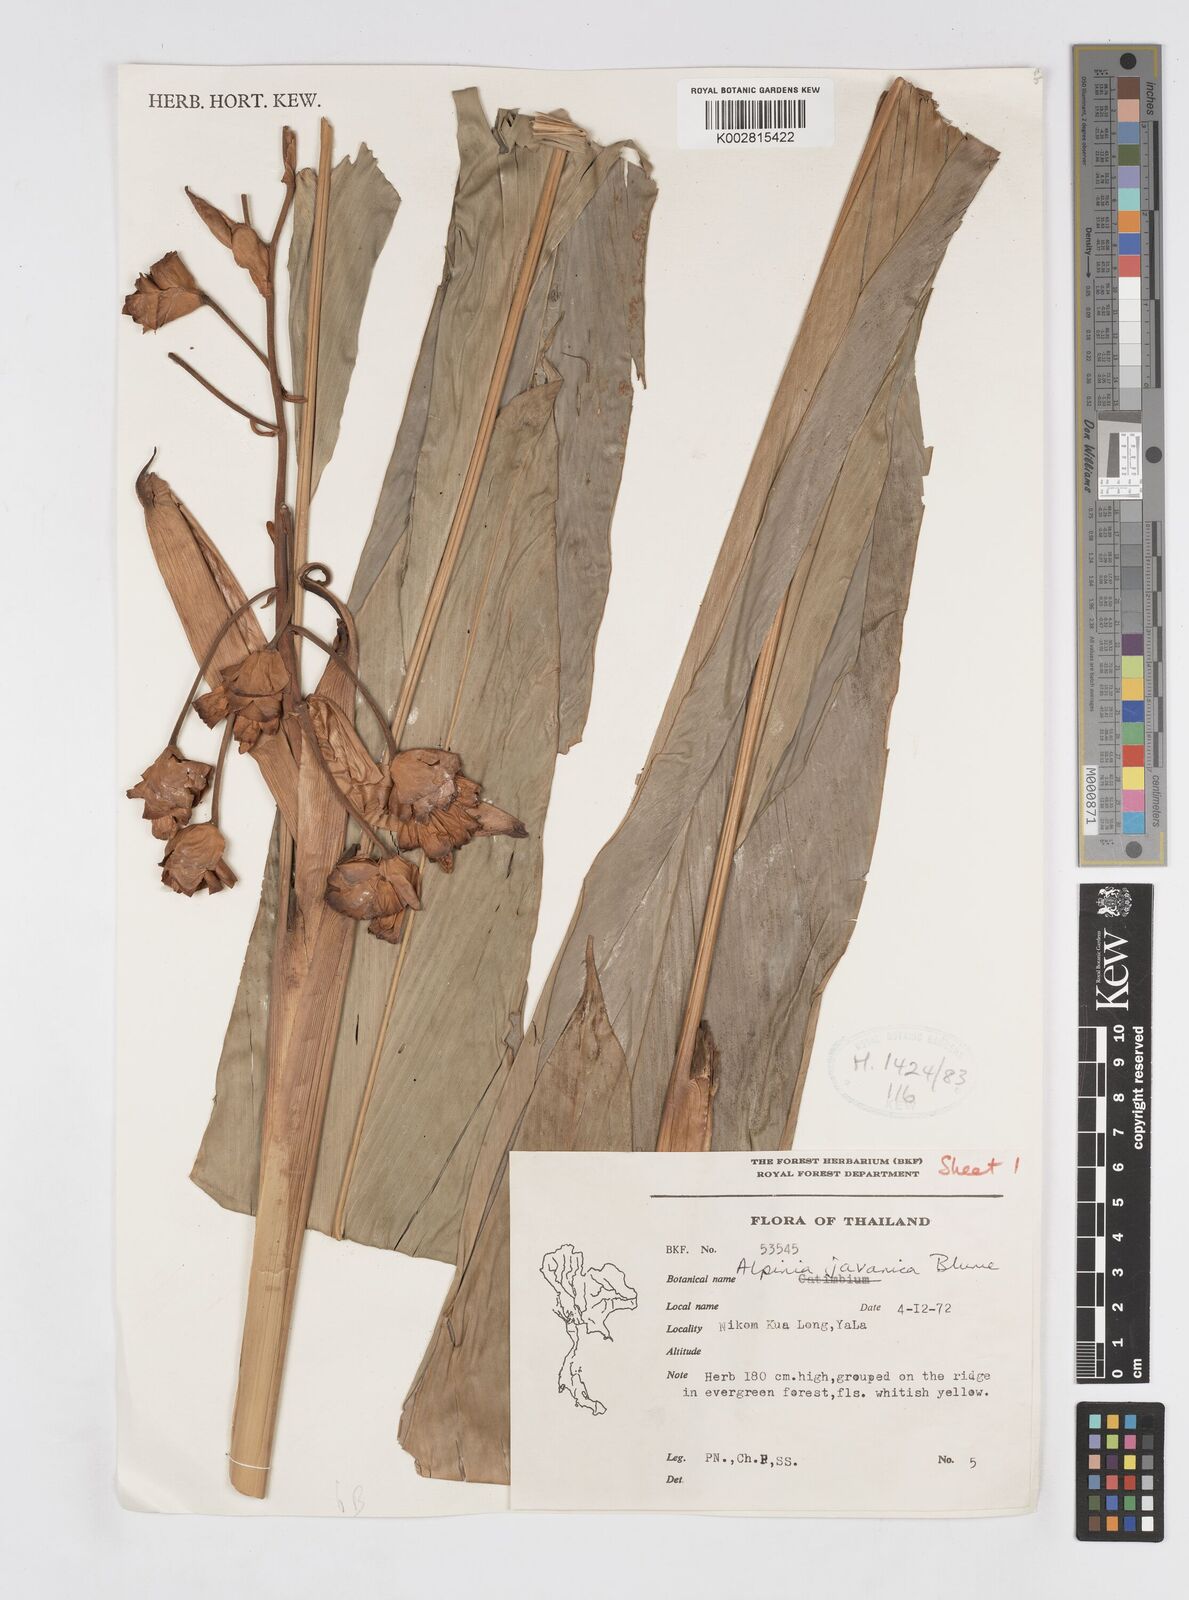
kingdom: Plantae
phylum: Tracheophyta
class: Liliopsida
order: Zingiberales
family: Zingiberaceae
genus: Alpinia
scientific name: Alpinia javanica
